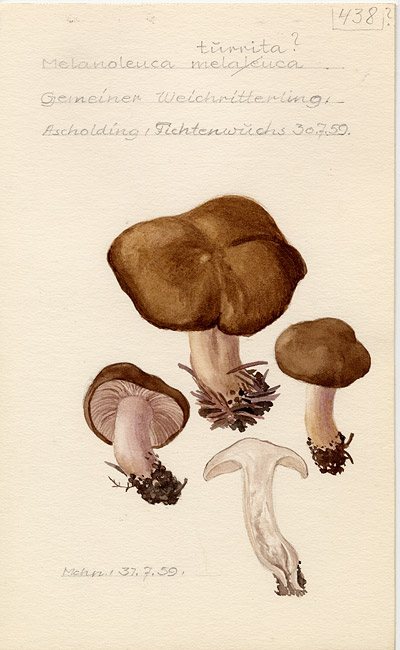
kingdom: Fungi
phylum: Basidiomycota
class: Agaricomycetes
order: Agaricales
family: Tricholomataceae
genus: Melanoleuca
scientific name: Melanoleuca turrita
